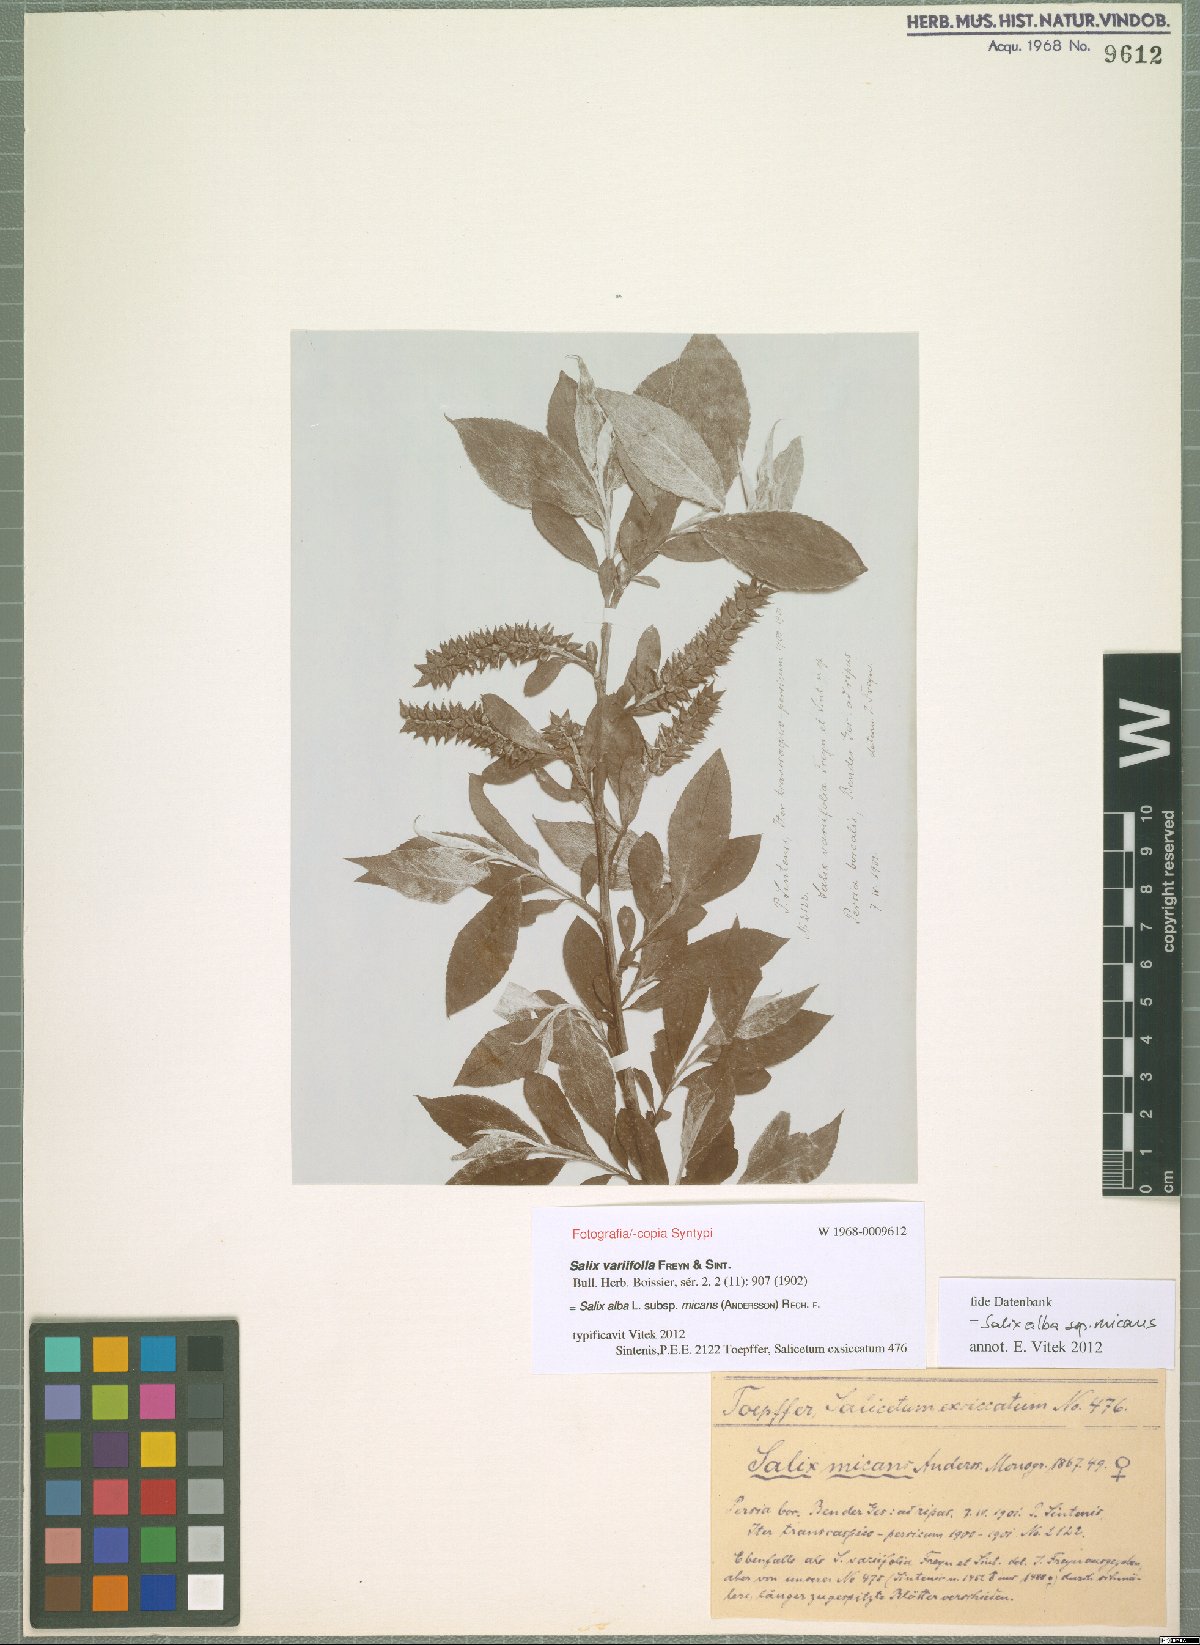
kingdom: Plantae
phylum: Tracheophyta
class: Magnoliopsida
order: Malpighiales
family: Salicaceae
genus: Salix
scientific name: Salix alba
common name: White willow
